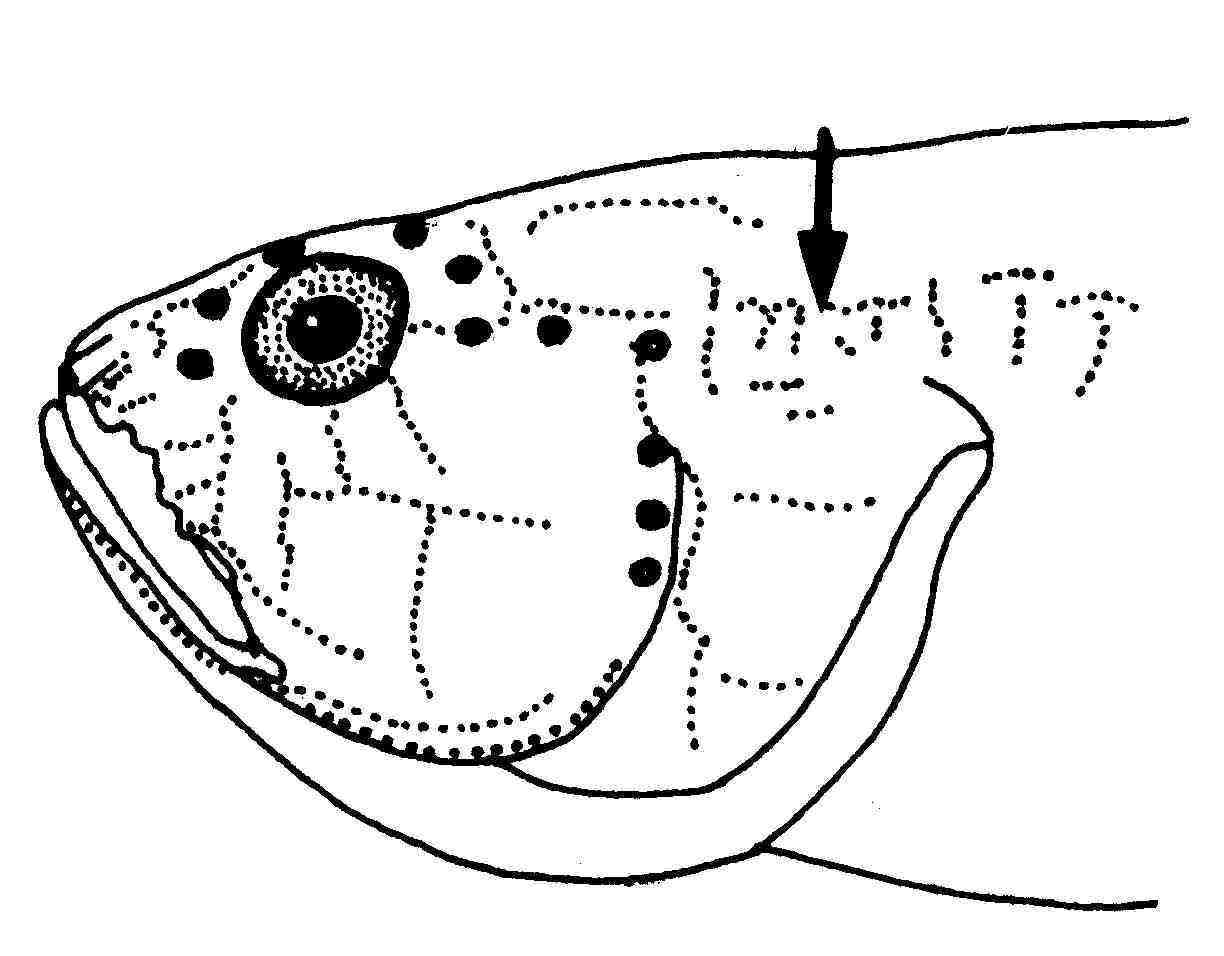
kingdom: Animalia
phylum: Chordata
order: Perciformes
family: Gobiidae
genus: Lotilia
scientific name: Lotilia graciliosa
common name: Whitecap goby
